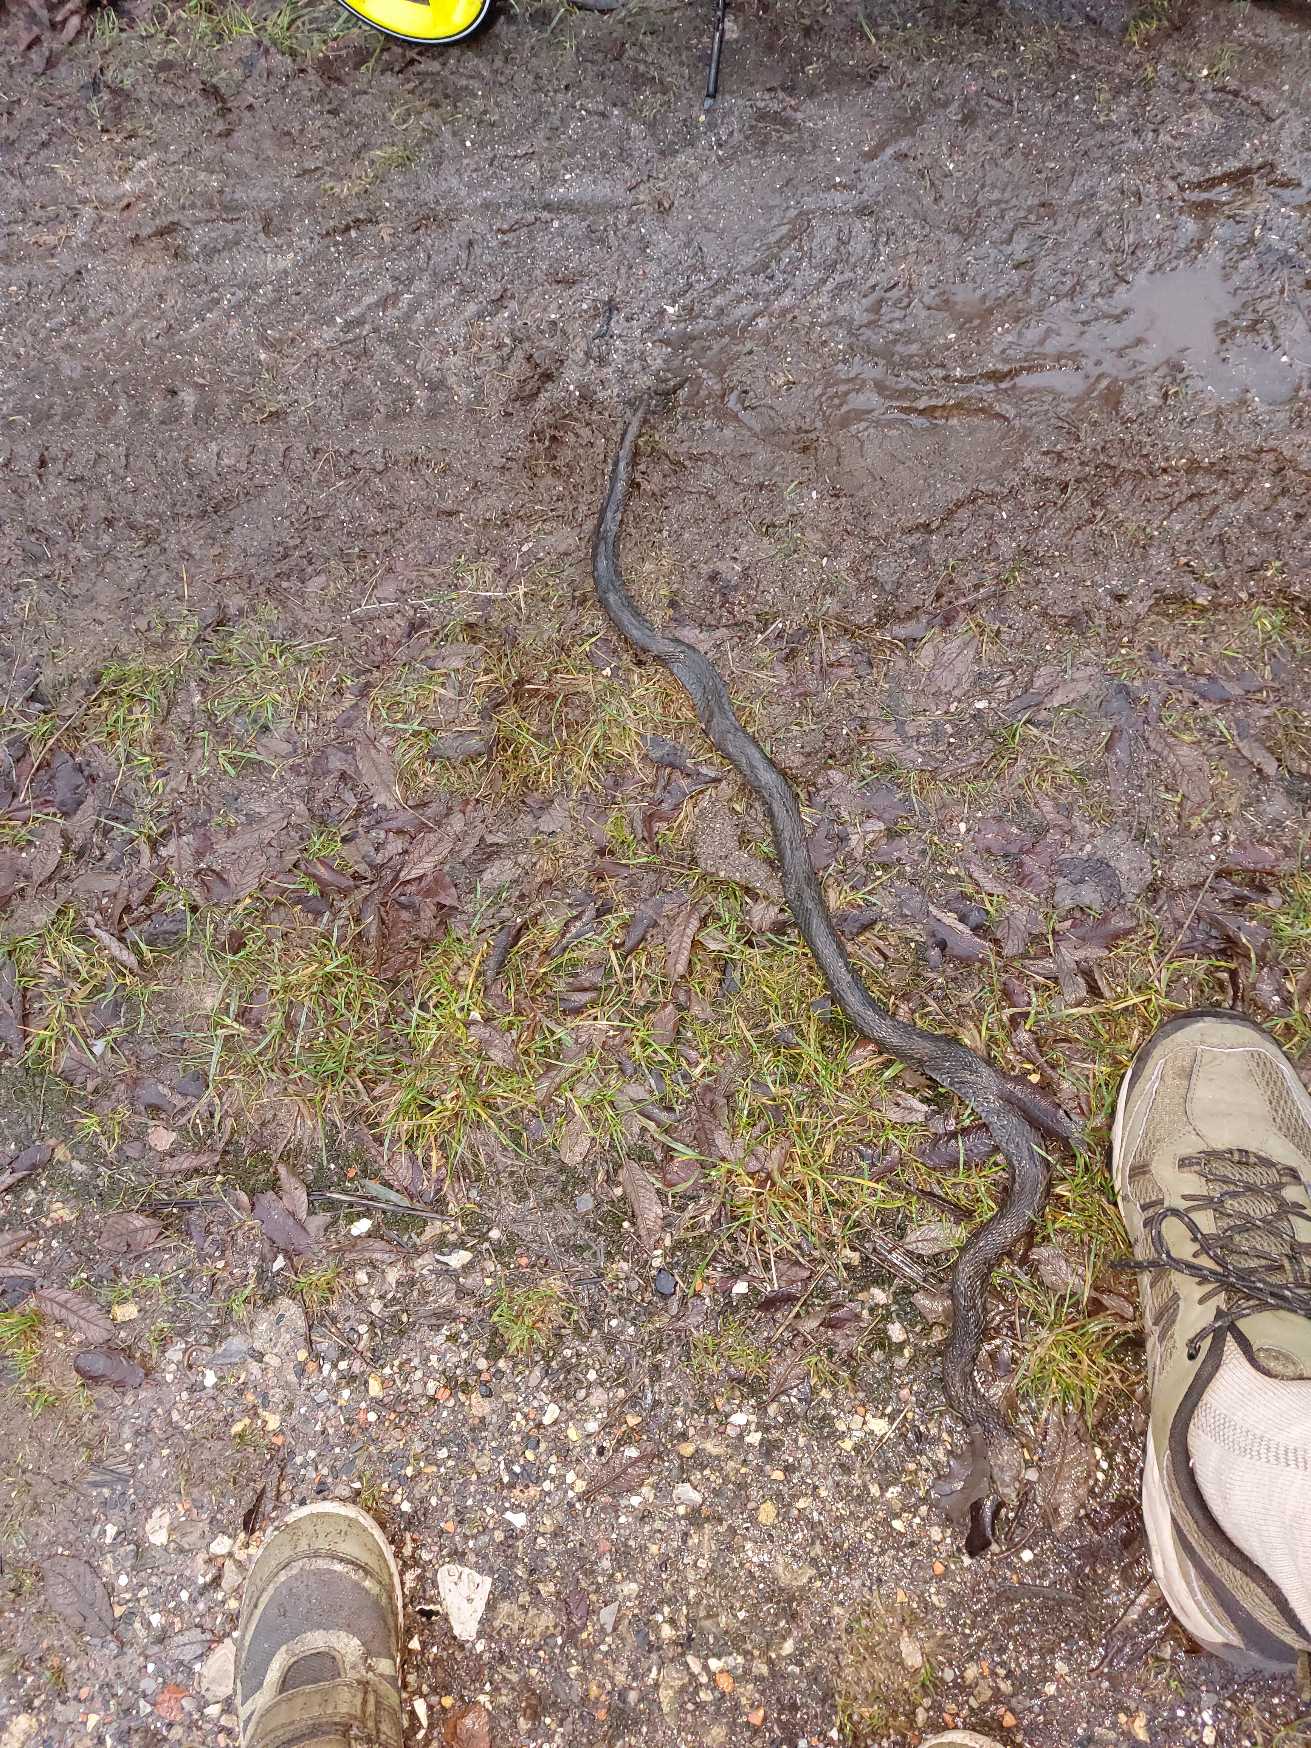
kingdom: Animalia
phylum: Chordata
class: Squamata
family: Colubridae
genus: Natrix
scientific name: Natrix natrix
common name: Snog
